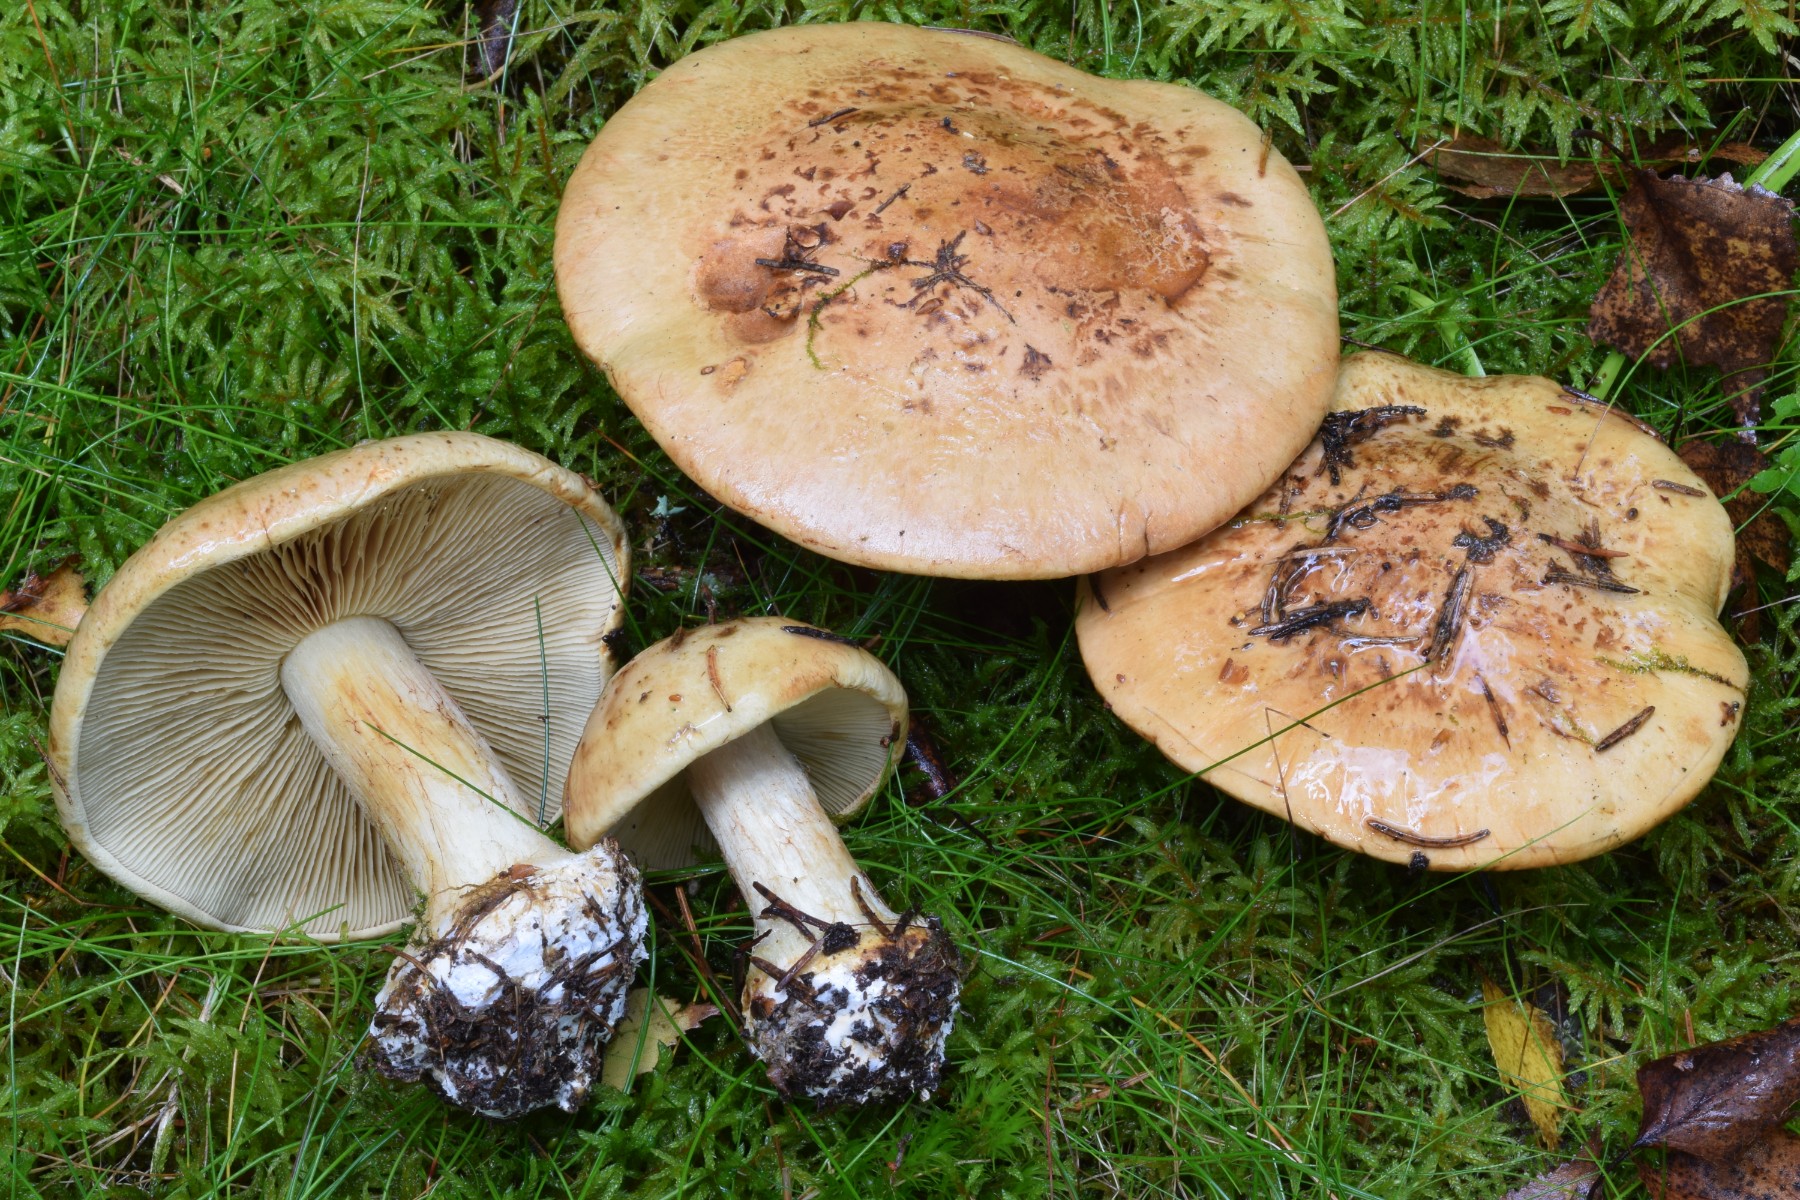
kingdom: Fungi
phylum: Basidiomycota
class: Agaricomycetes
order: Agaricales
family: Cortinariaceae
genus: Calonarius
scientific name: Calonarius sulfurinus
